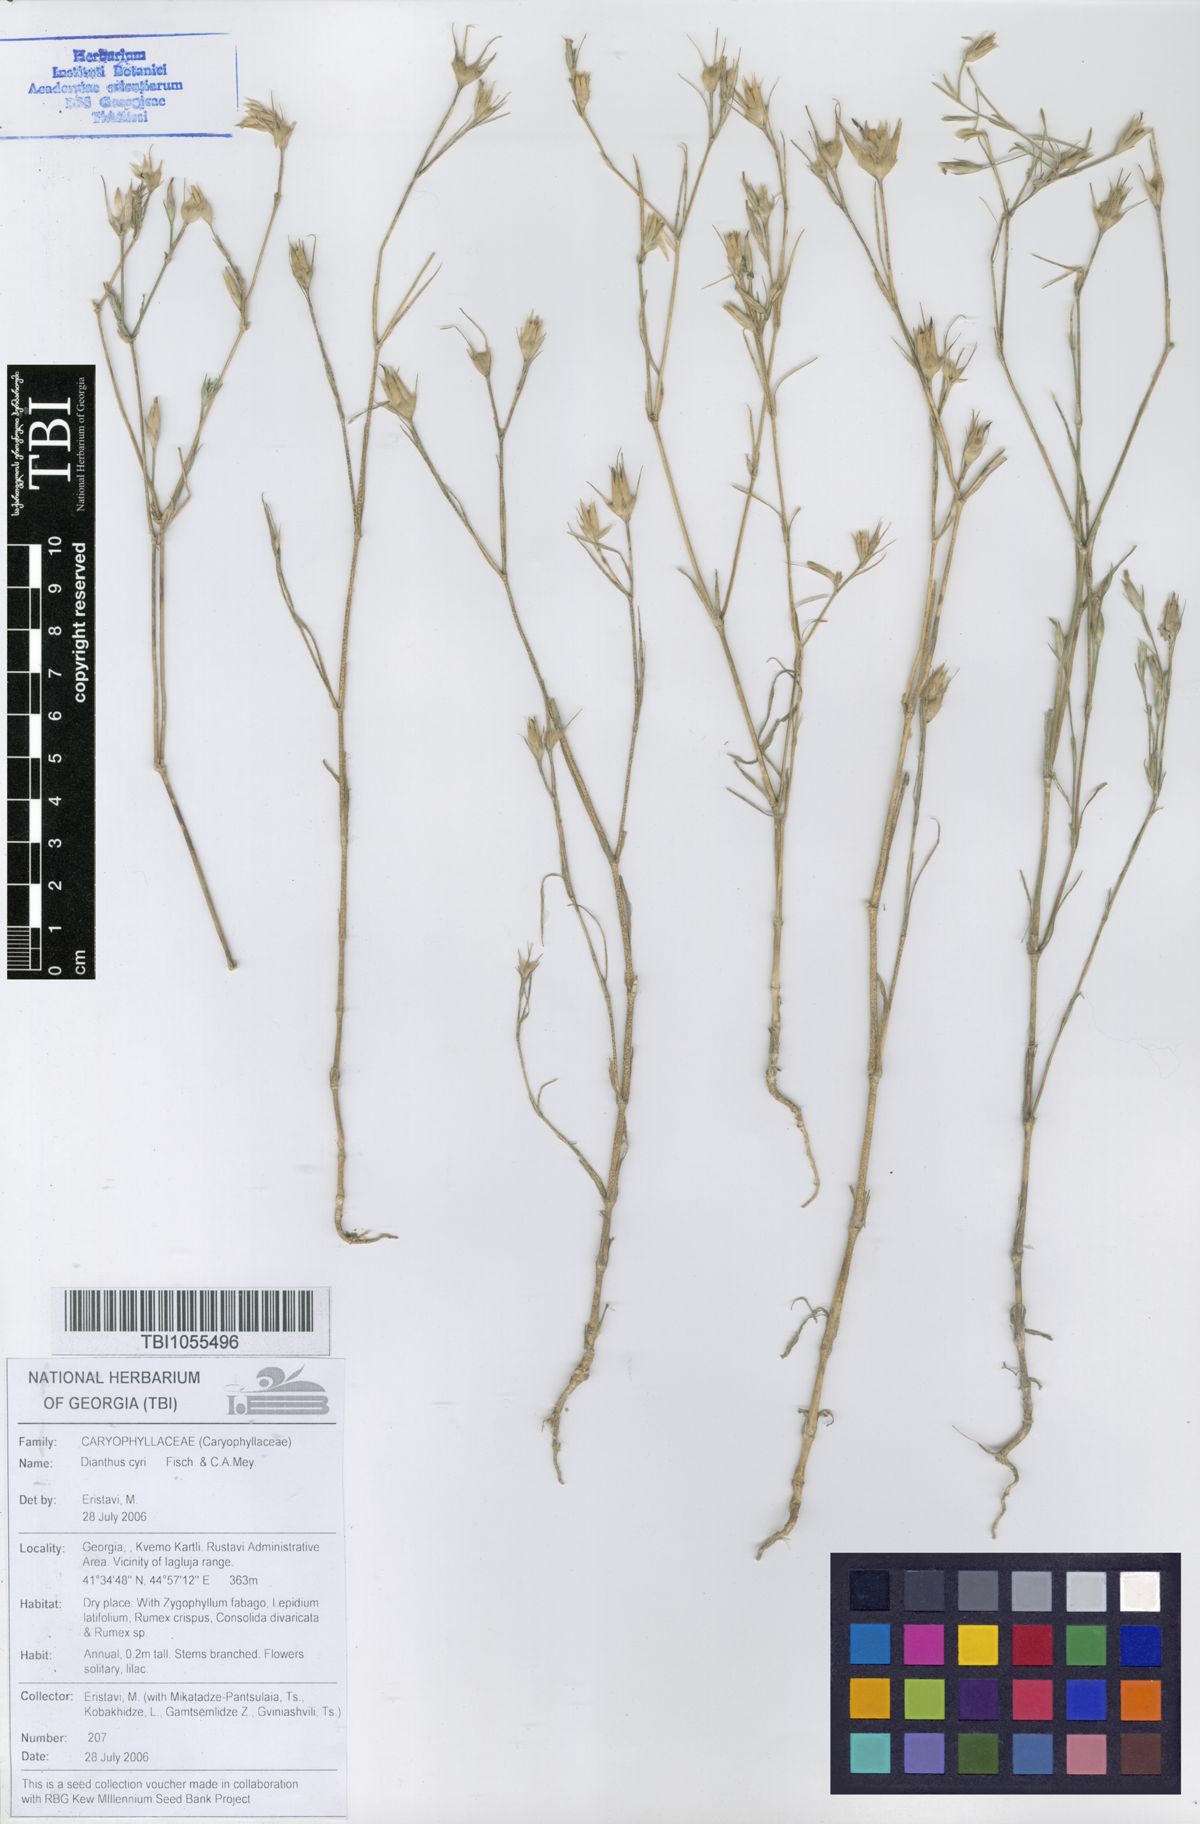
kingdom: Plantae
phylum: Tracheophyta
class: Magnoliopsida
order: Caryophyllales
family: Caryophyllaceae
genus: Dianthus
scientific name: Dianthus cyri
